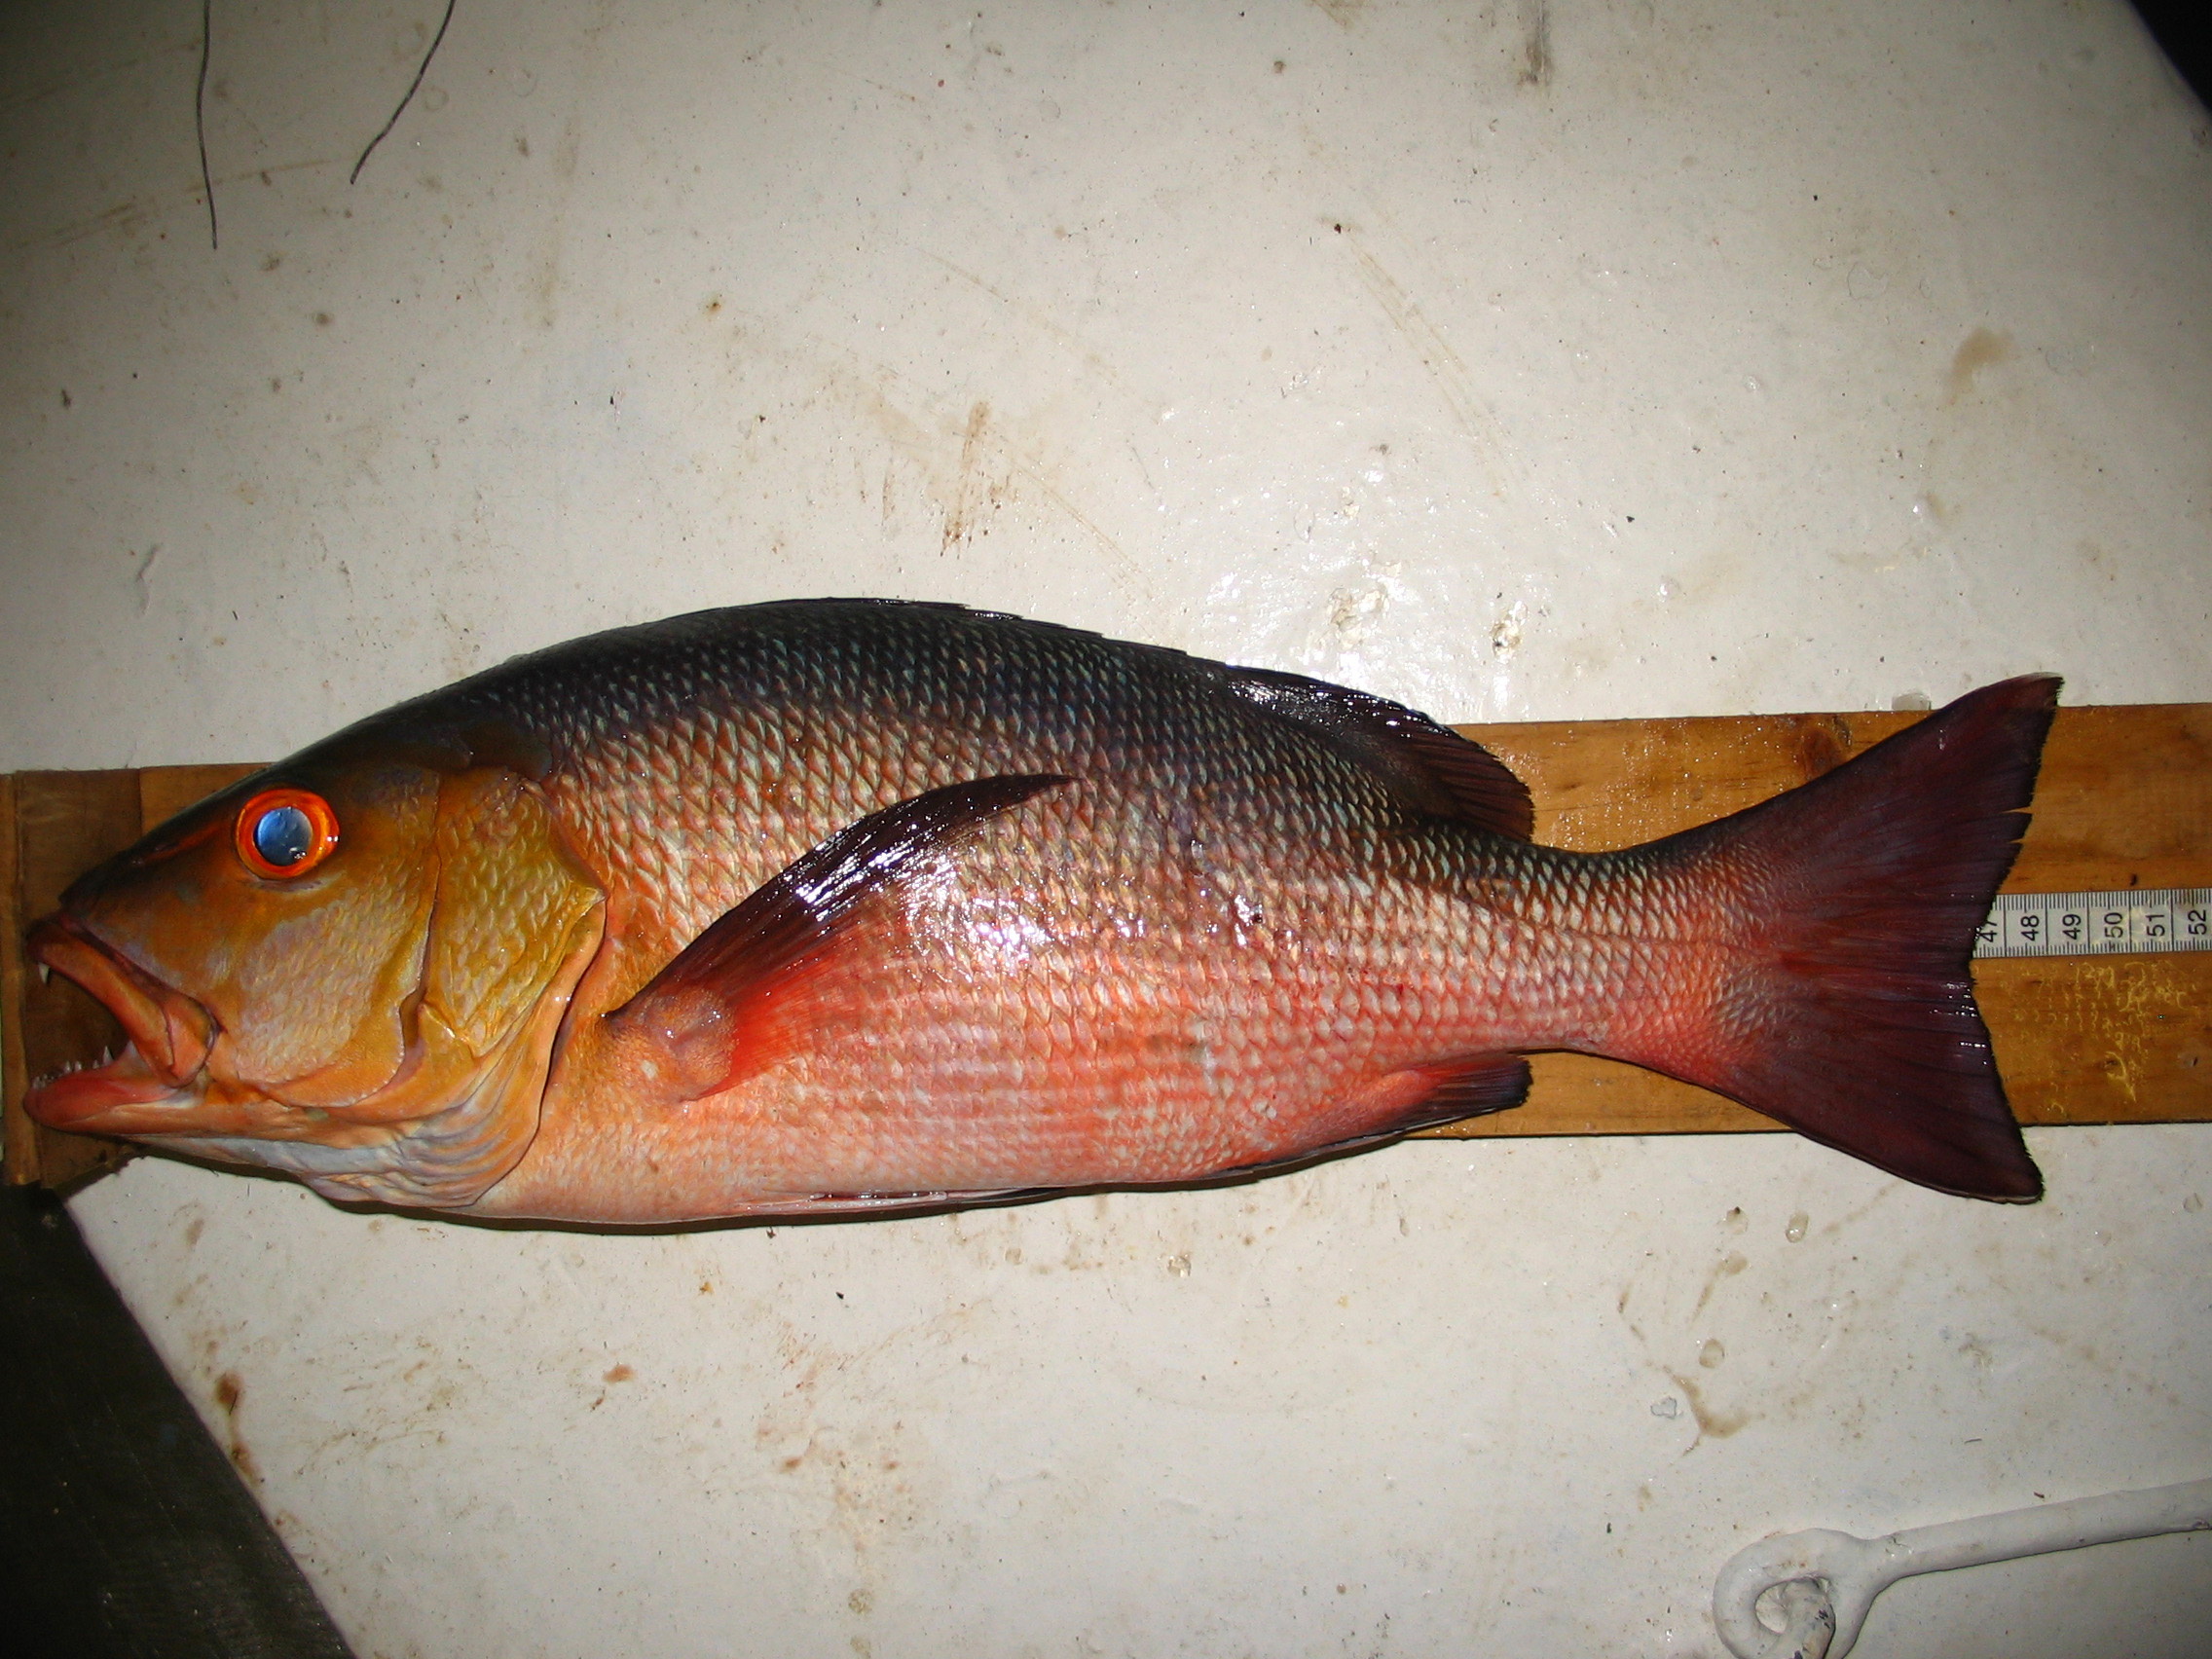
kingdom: Animalia
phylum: Chordata
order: Perciformes
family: Lutjanidae
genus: Lutjanus
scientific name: Lutjanus bohar
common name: Red bass
